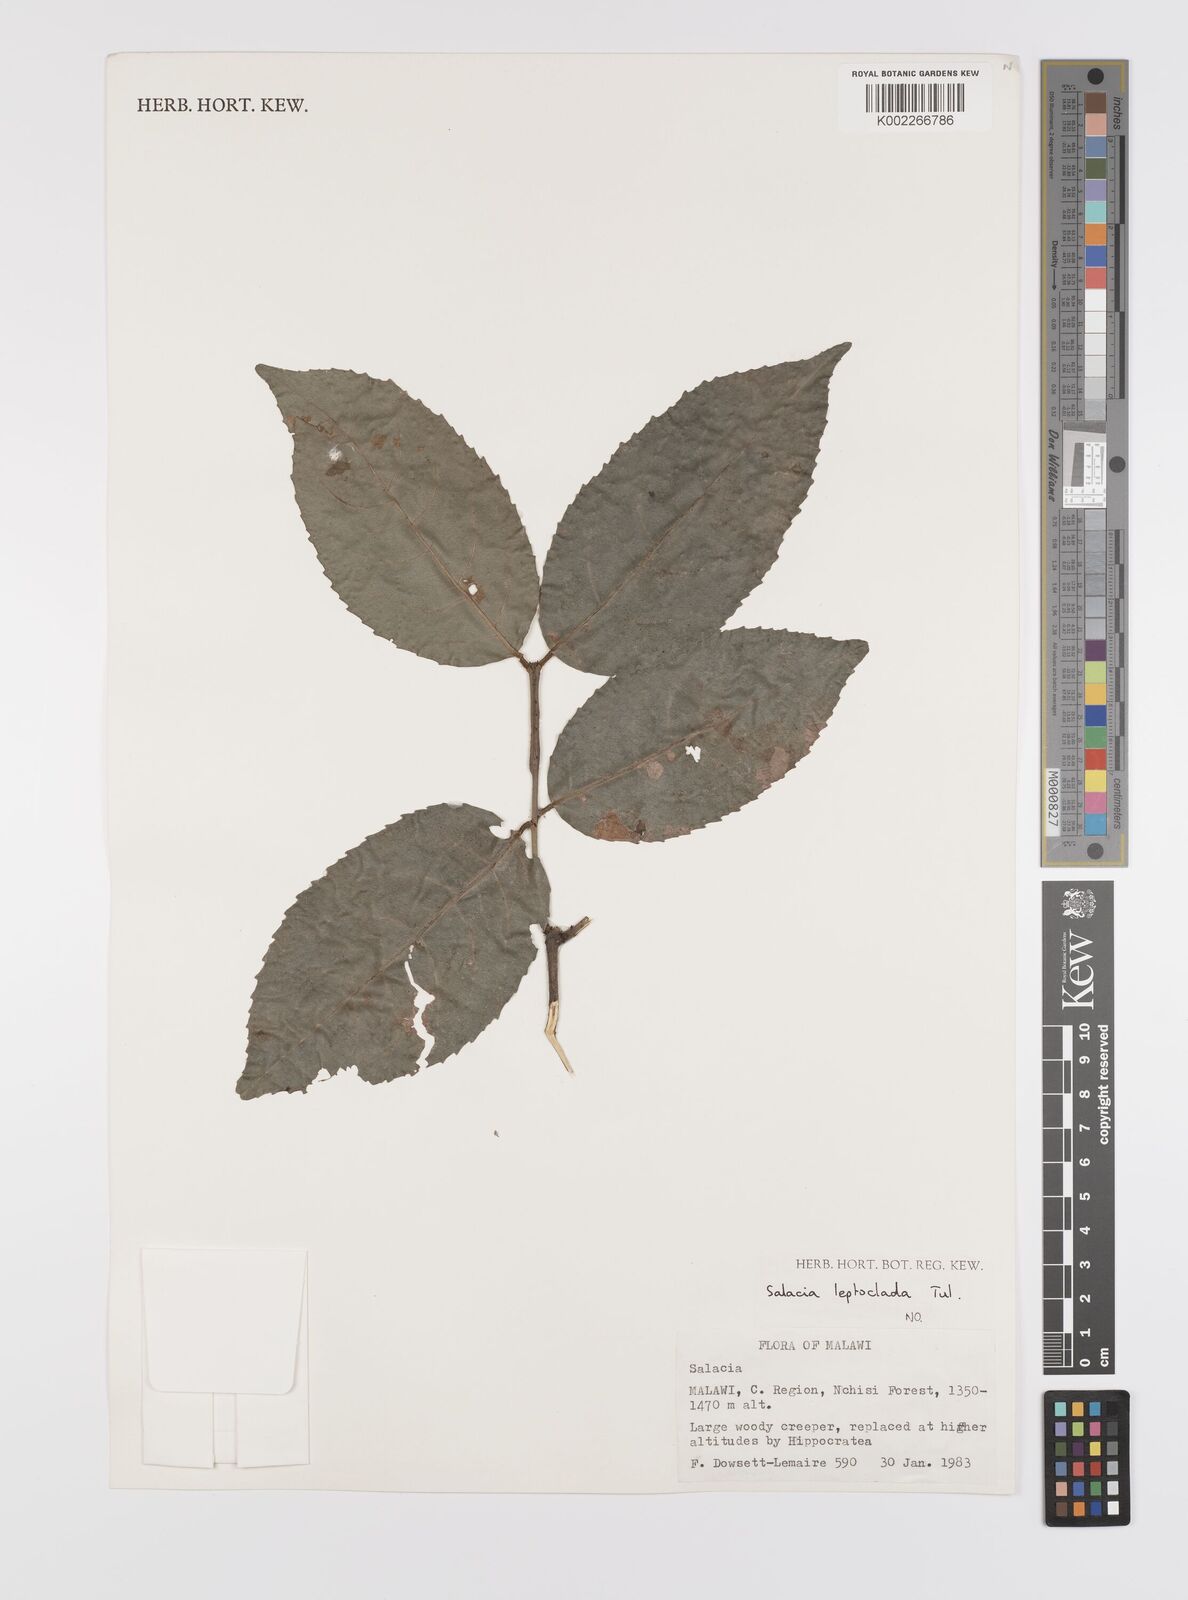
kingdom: Plantae
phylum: Tracheophyta
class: Magnoliopsida
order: Celastrales
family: Celastraceae
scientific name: Celastraceae
